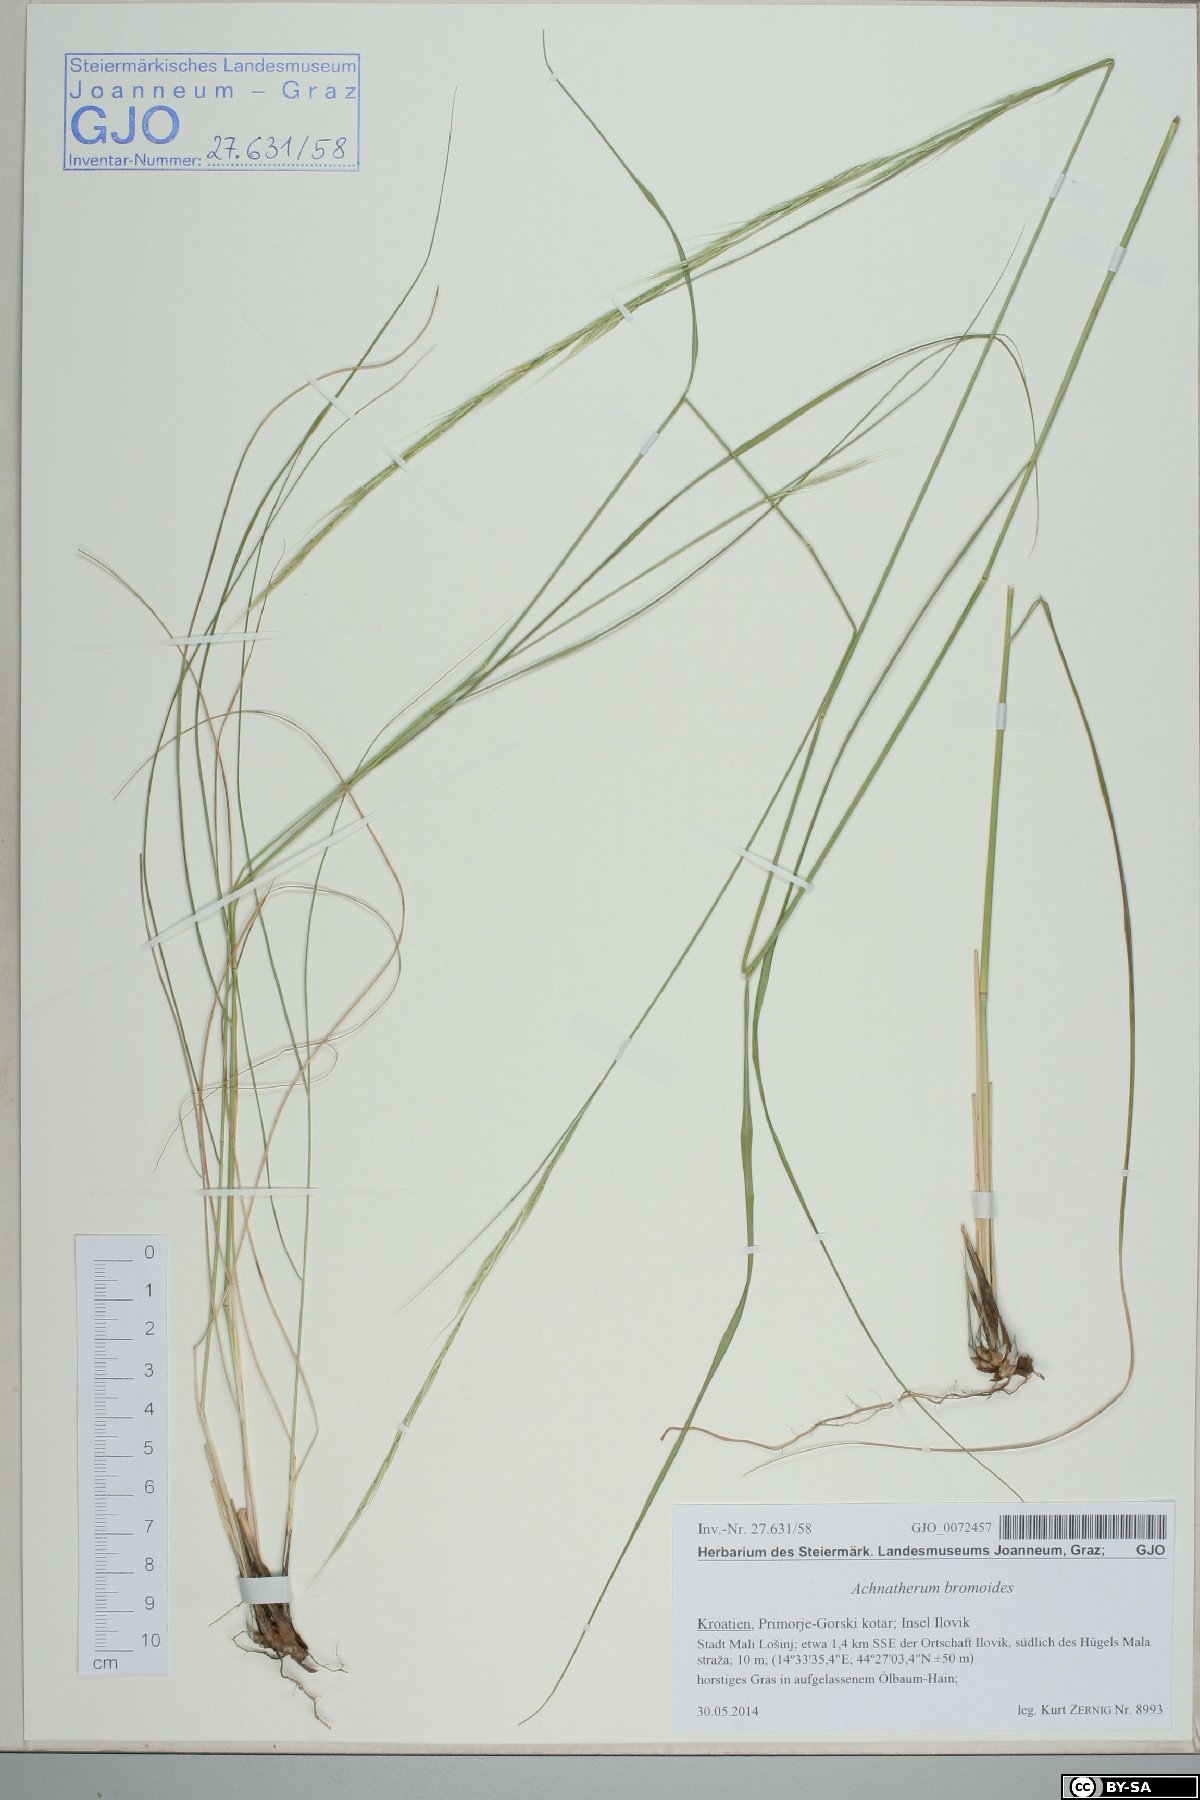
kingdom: Plantae
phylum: Tracheophyta
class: Liliopsida
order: Poales
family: Poaceae
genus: Achnatherum
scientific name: Achnatherum bromoides
